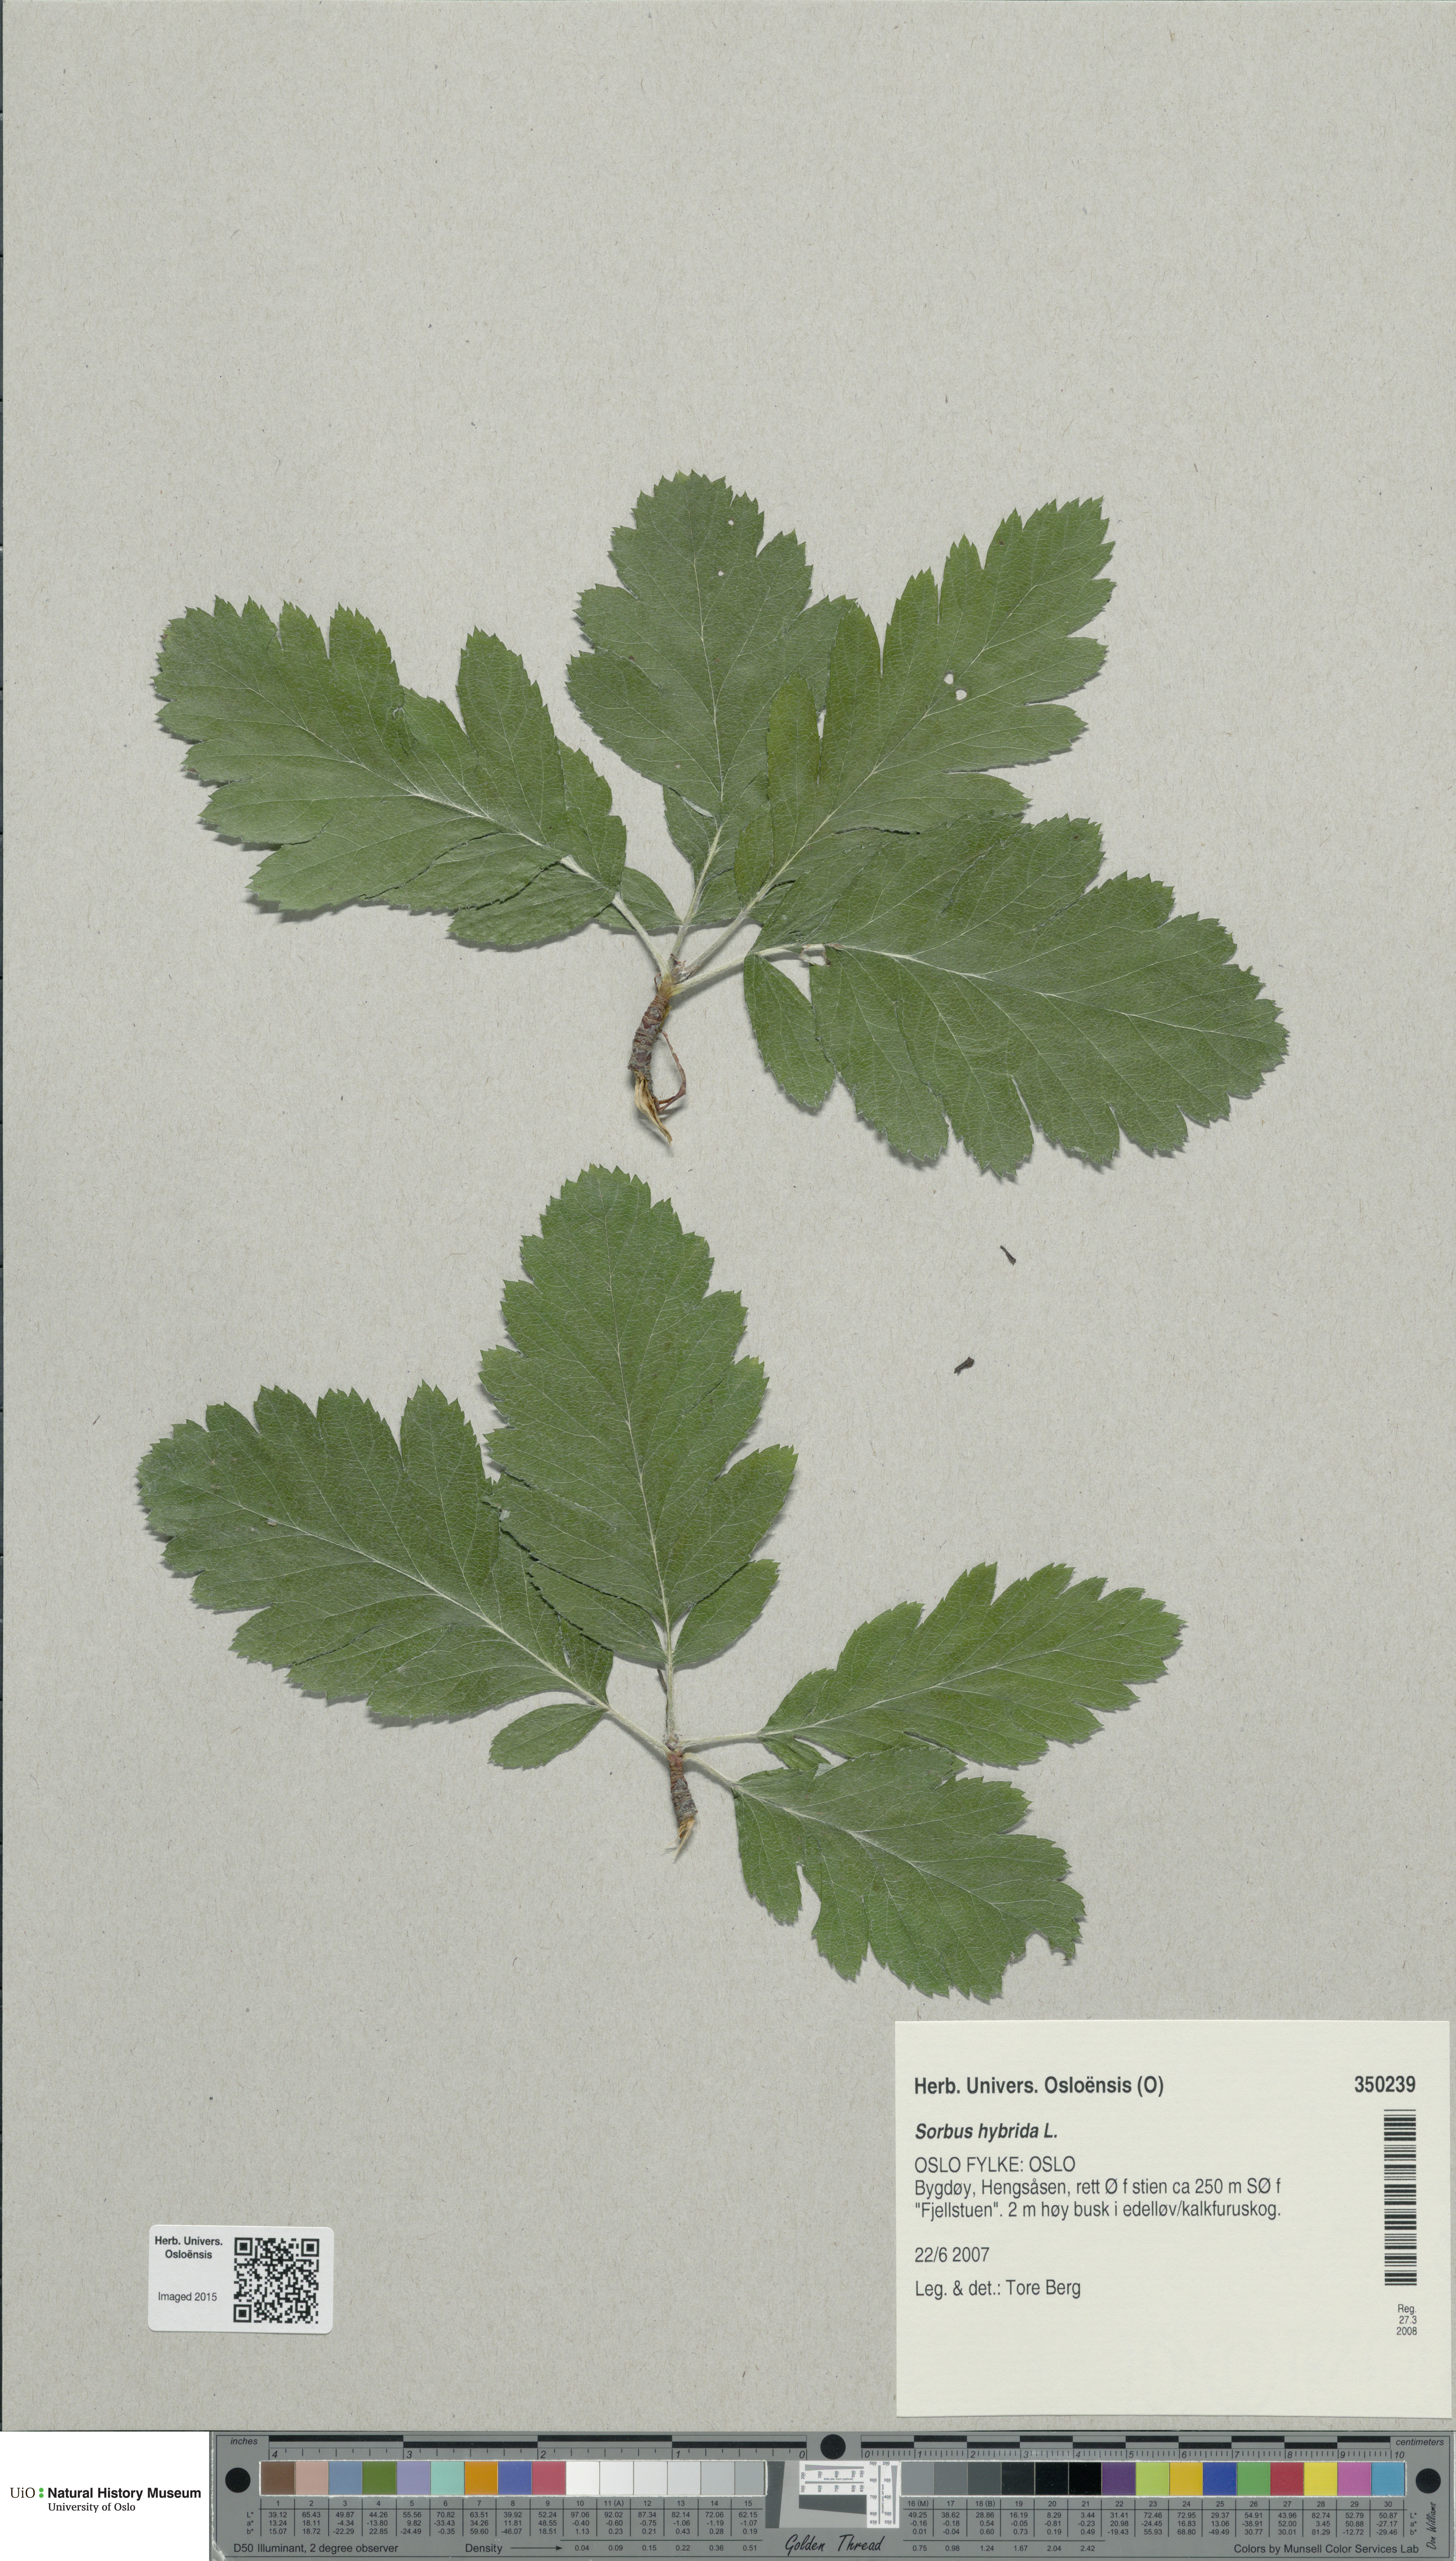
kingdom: Plantae
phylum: Tracheophyta
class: Magnoliopsida
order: Rosales
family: Rosaceae
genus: Hedlundia
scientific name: Hedlundia hybrida
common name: Swedish service-tree
